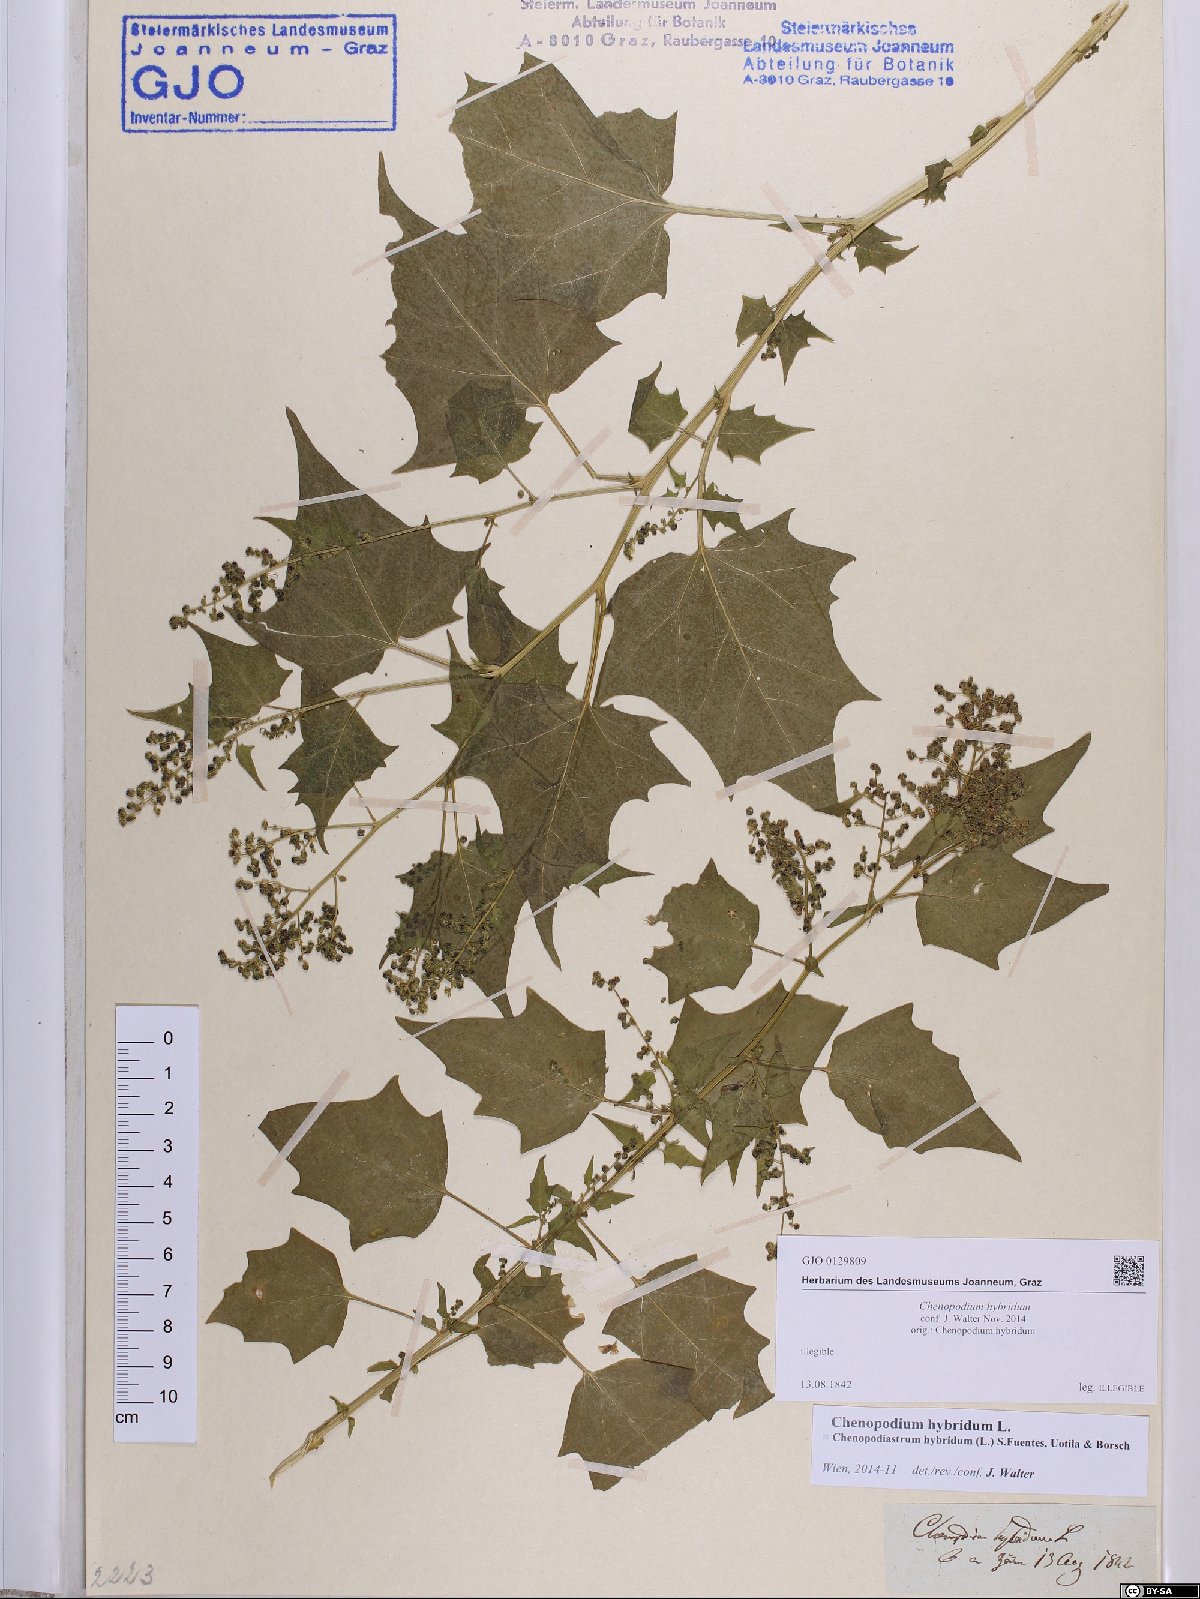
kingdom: Plantae
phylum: Tracheophyta
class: Magnoliopsida
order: Caryophyllales
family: Amaranthaceae
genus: Chenopodiastrum
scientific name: Chenopodiastrum hybridum
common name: Mapleleaf goosefoot
